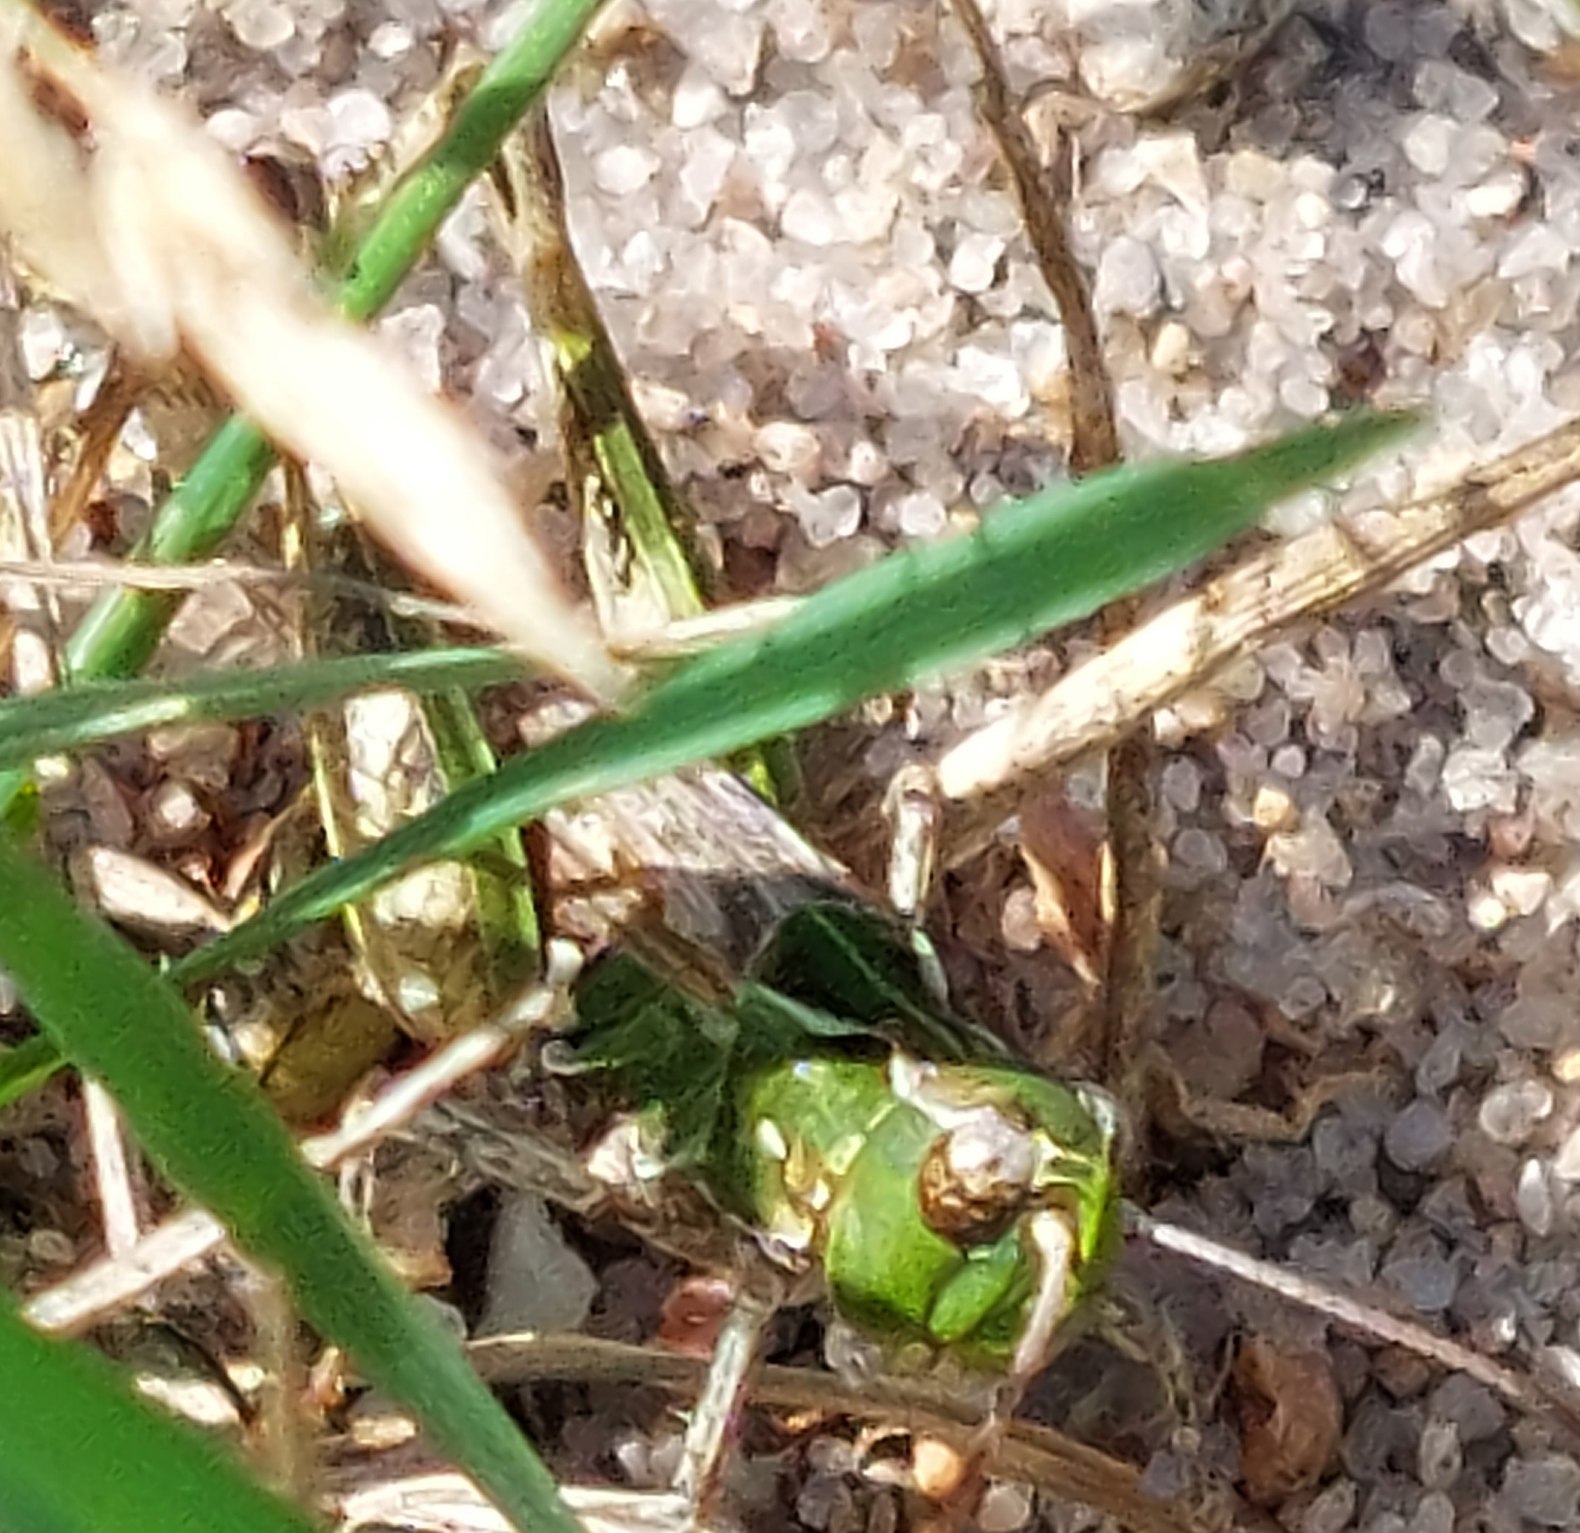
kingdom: Animalia
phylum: Arthropoda
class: Insecta
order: Orthoptera
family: Acrididae
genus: Myrmeleotettix
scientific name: Myrmeleotettix maculatus
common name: Køllegræshoppe
